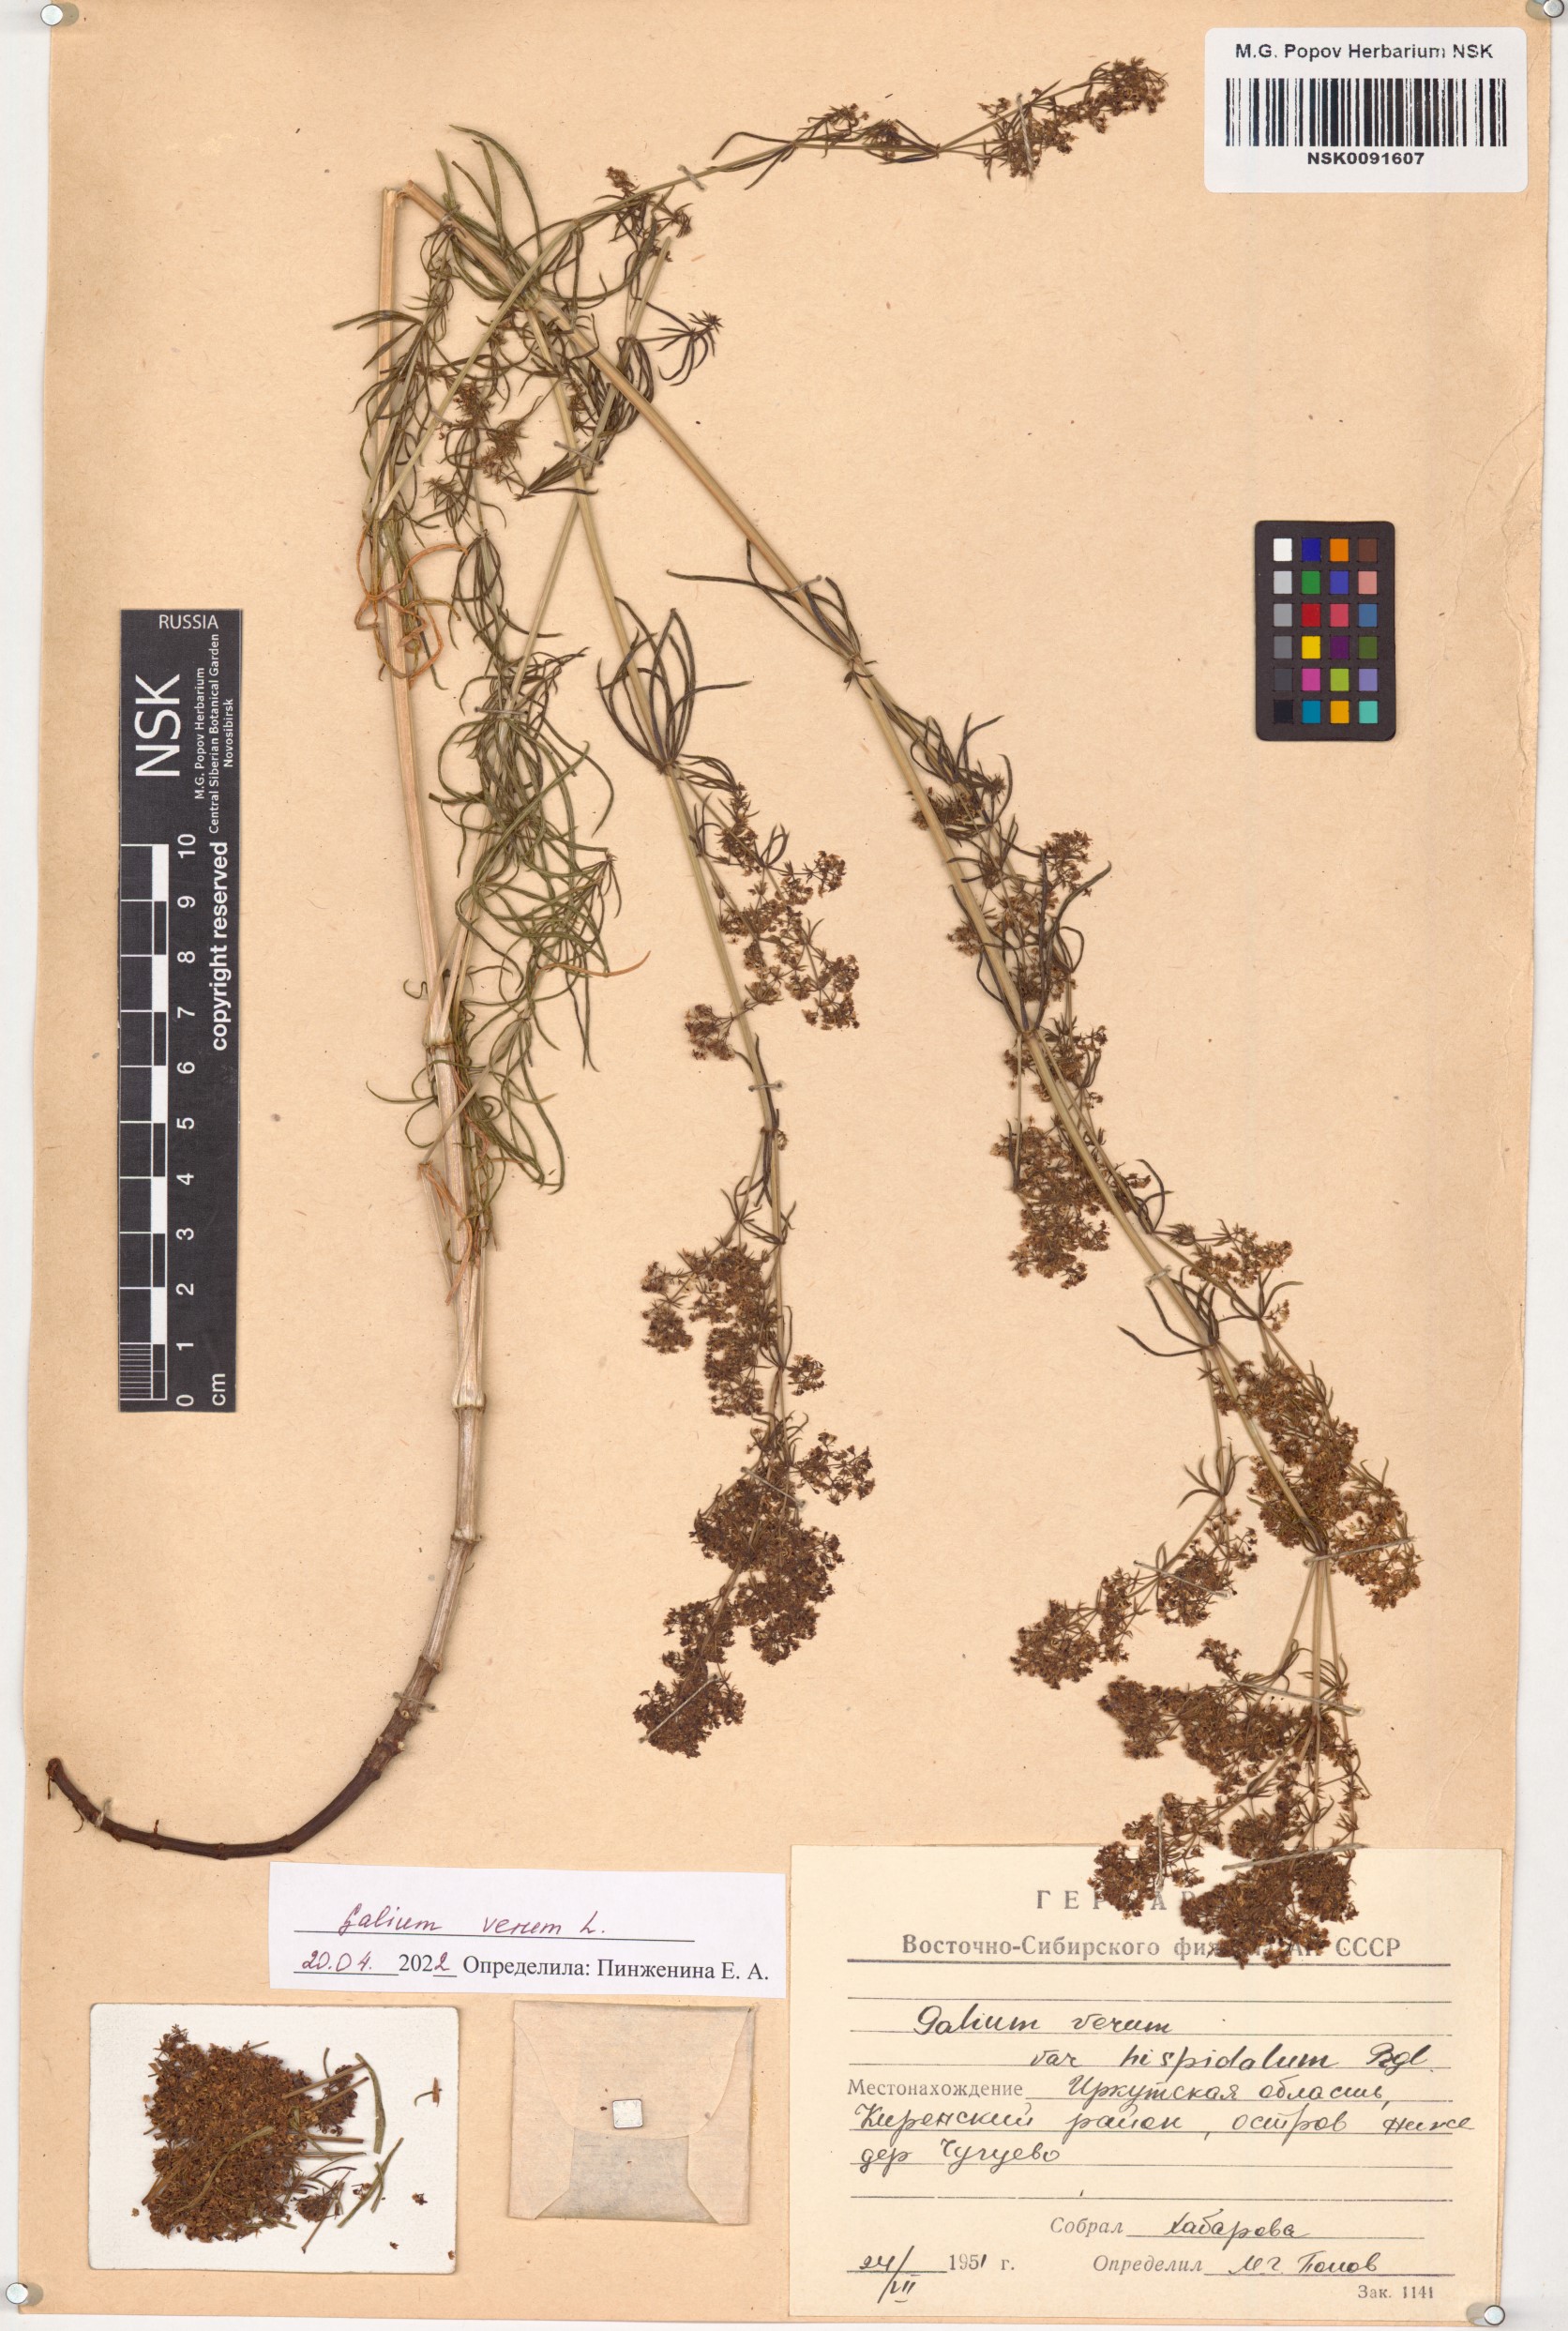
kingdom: Plantae
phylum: Tracheophyta
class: Magnoliopsida
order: Gentianales
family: Rubiaceae
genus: Galium
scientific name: Galium verum
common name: Lady's bedstraw
